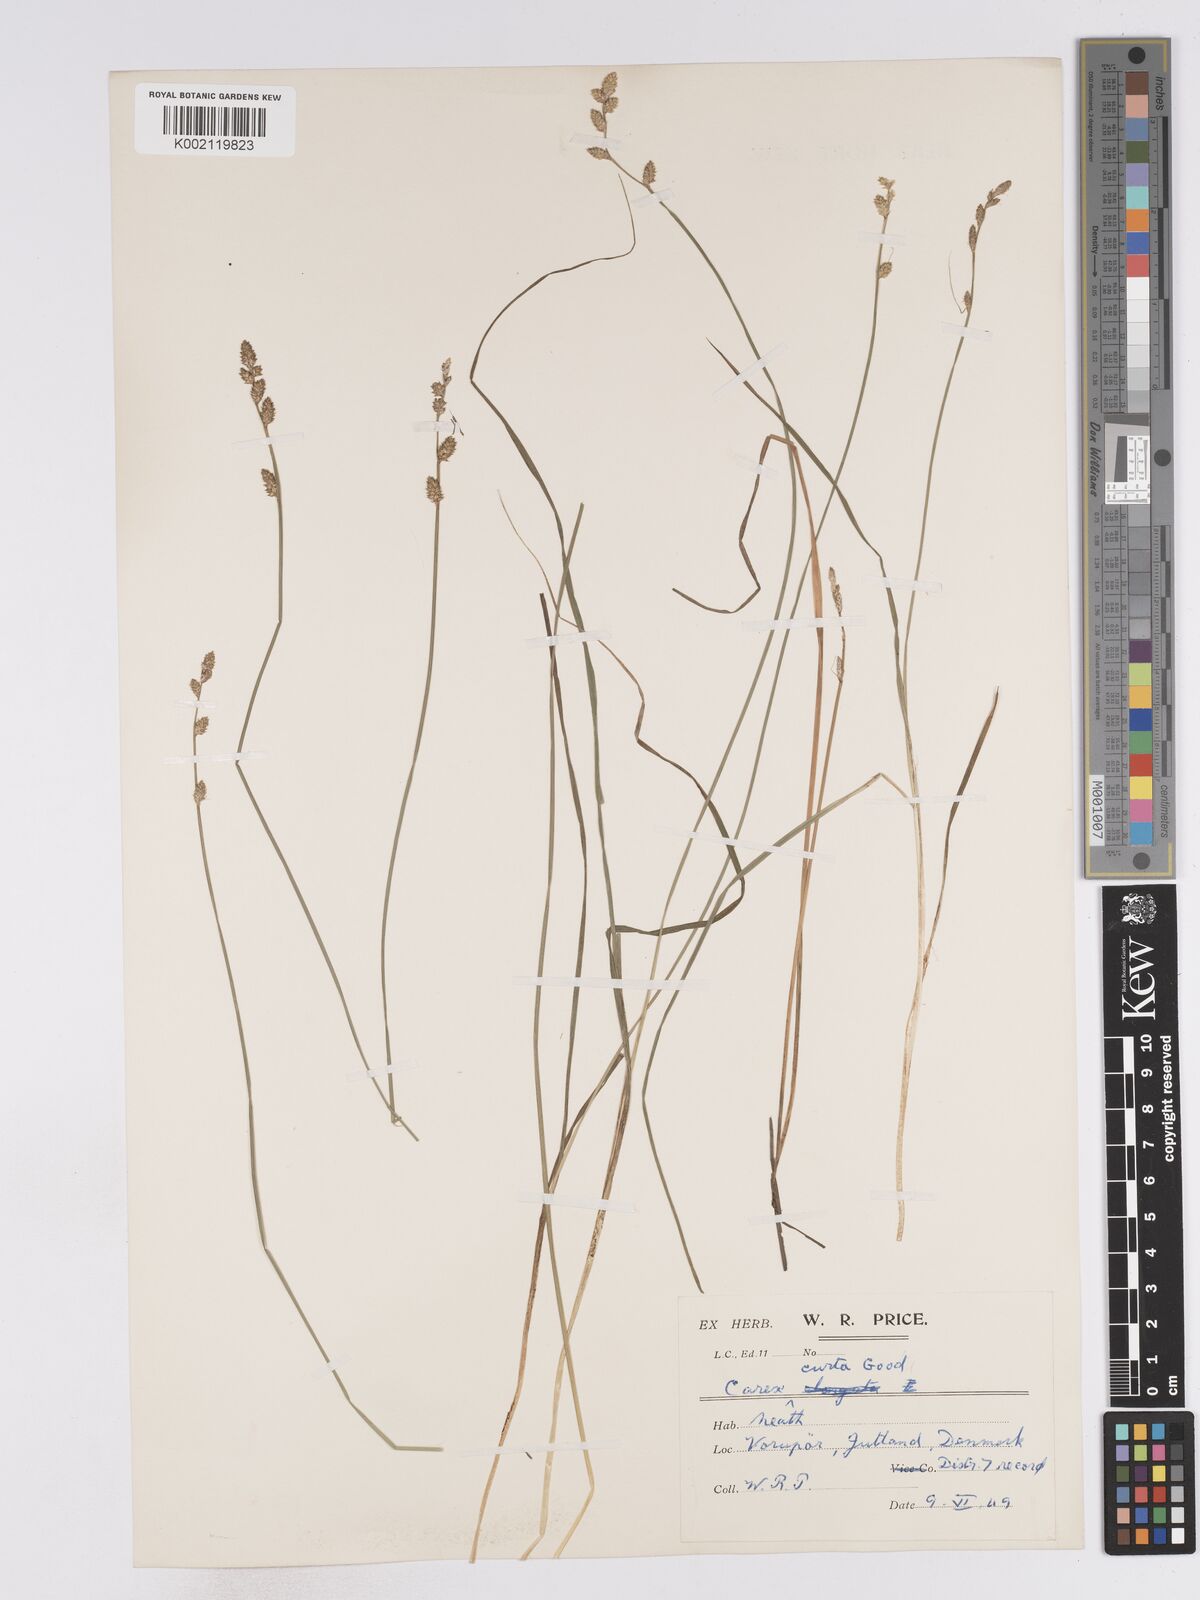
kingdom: Plantae
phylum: Tracheophyta
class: Liliopsida
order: Poales
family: Cyperaceae
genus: Carex
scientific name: Carex curta
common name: White sedge
